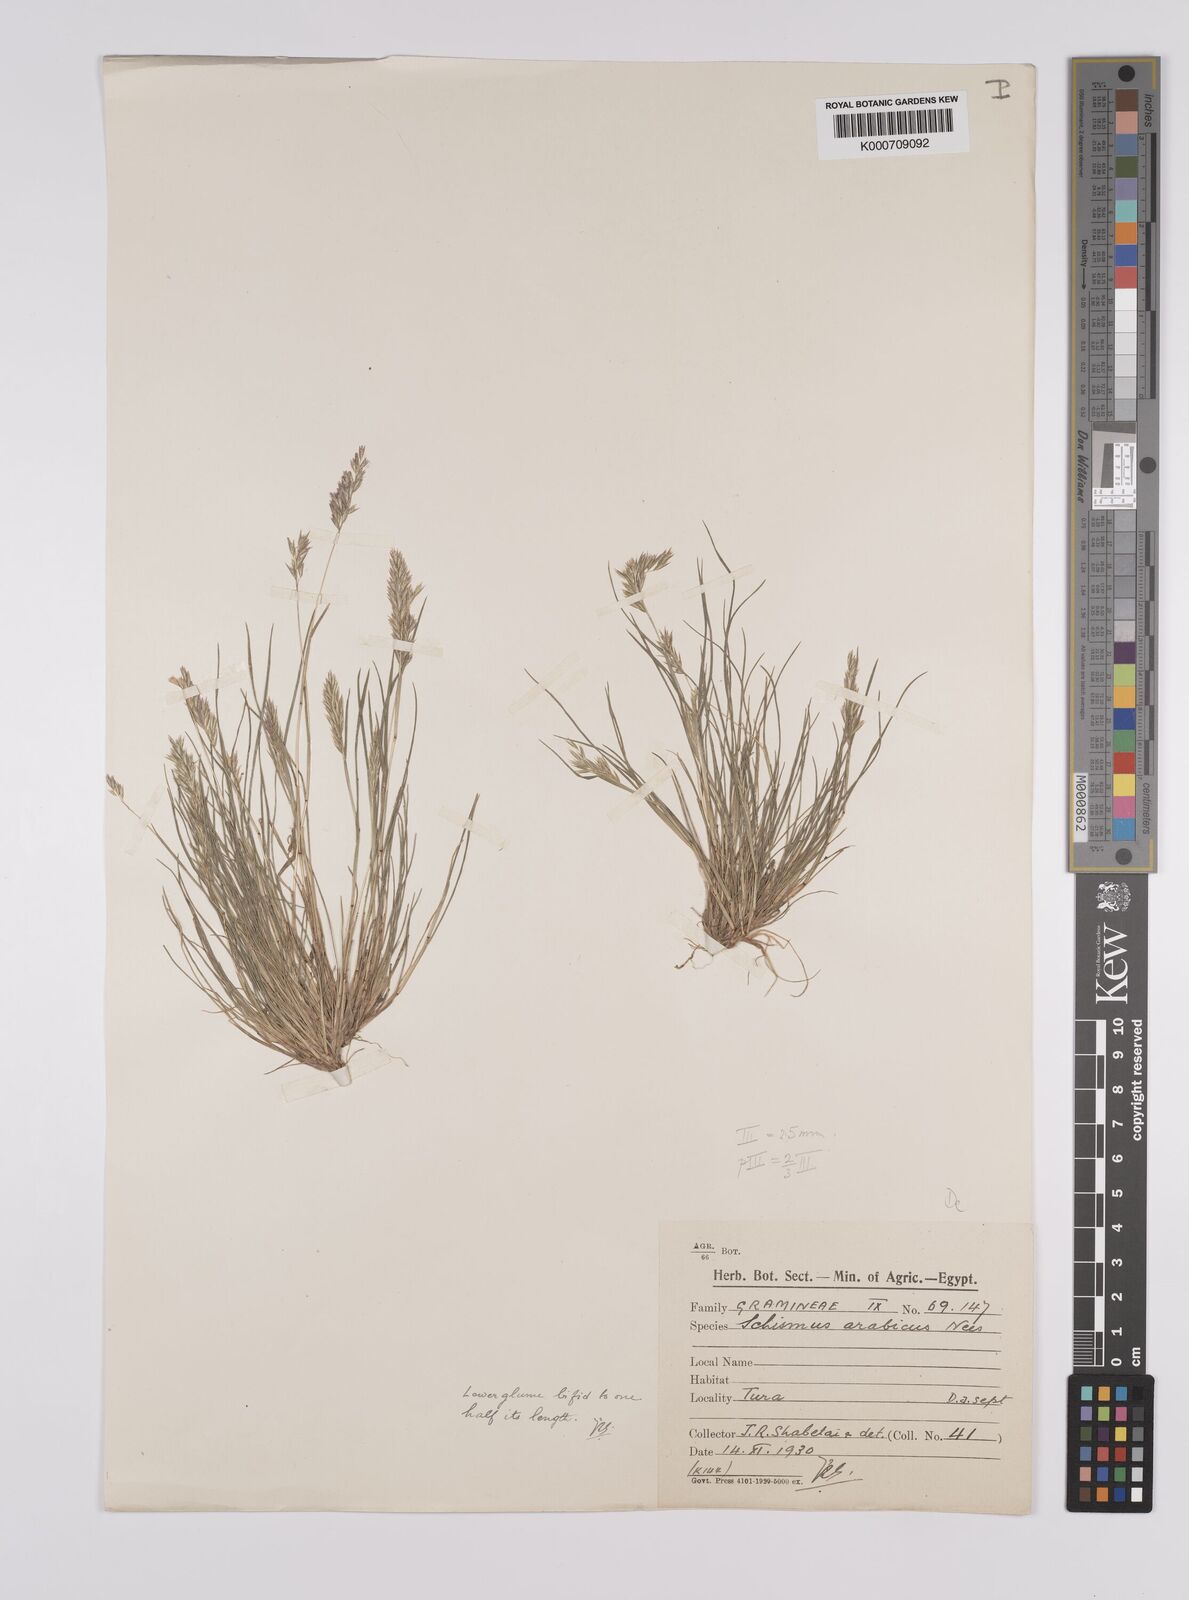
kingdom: Plantae
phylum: Tracheophyta
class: Liliopsida
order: Poales
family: Poaceae
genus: Schismus
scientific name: Schismus arabicus
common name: Arabian schismus
